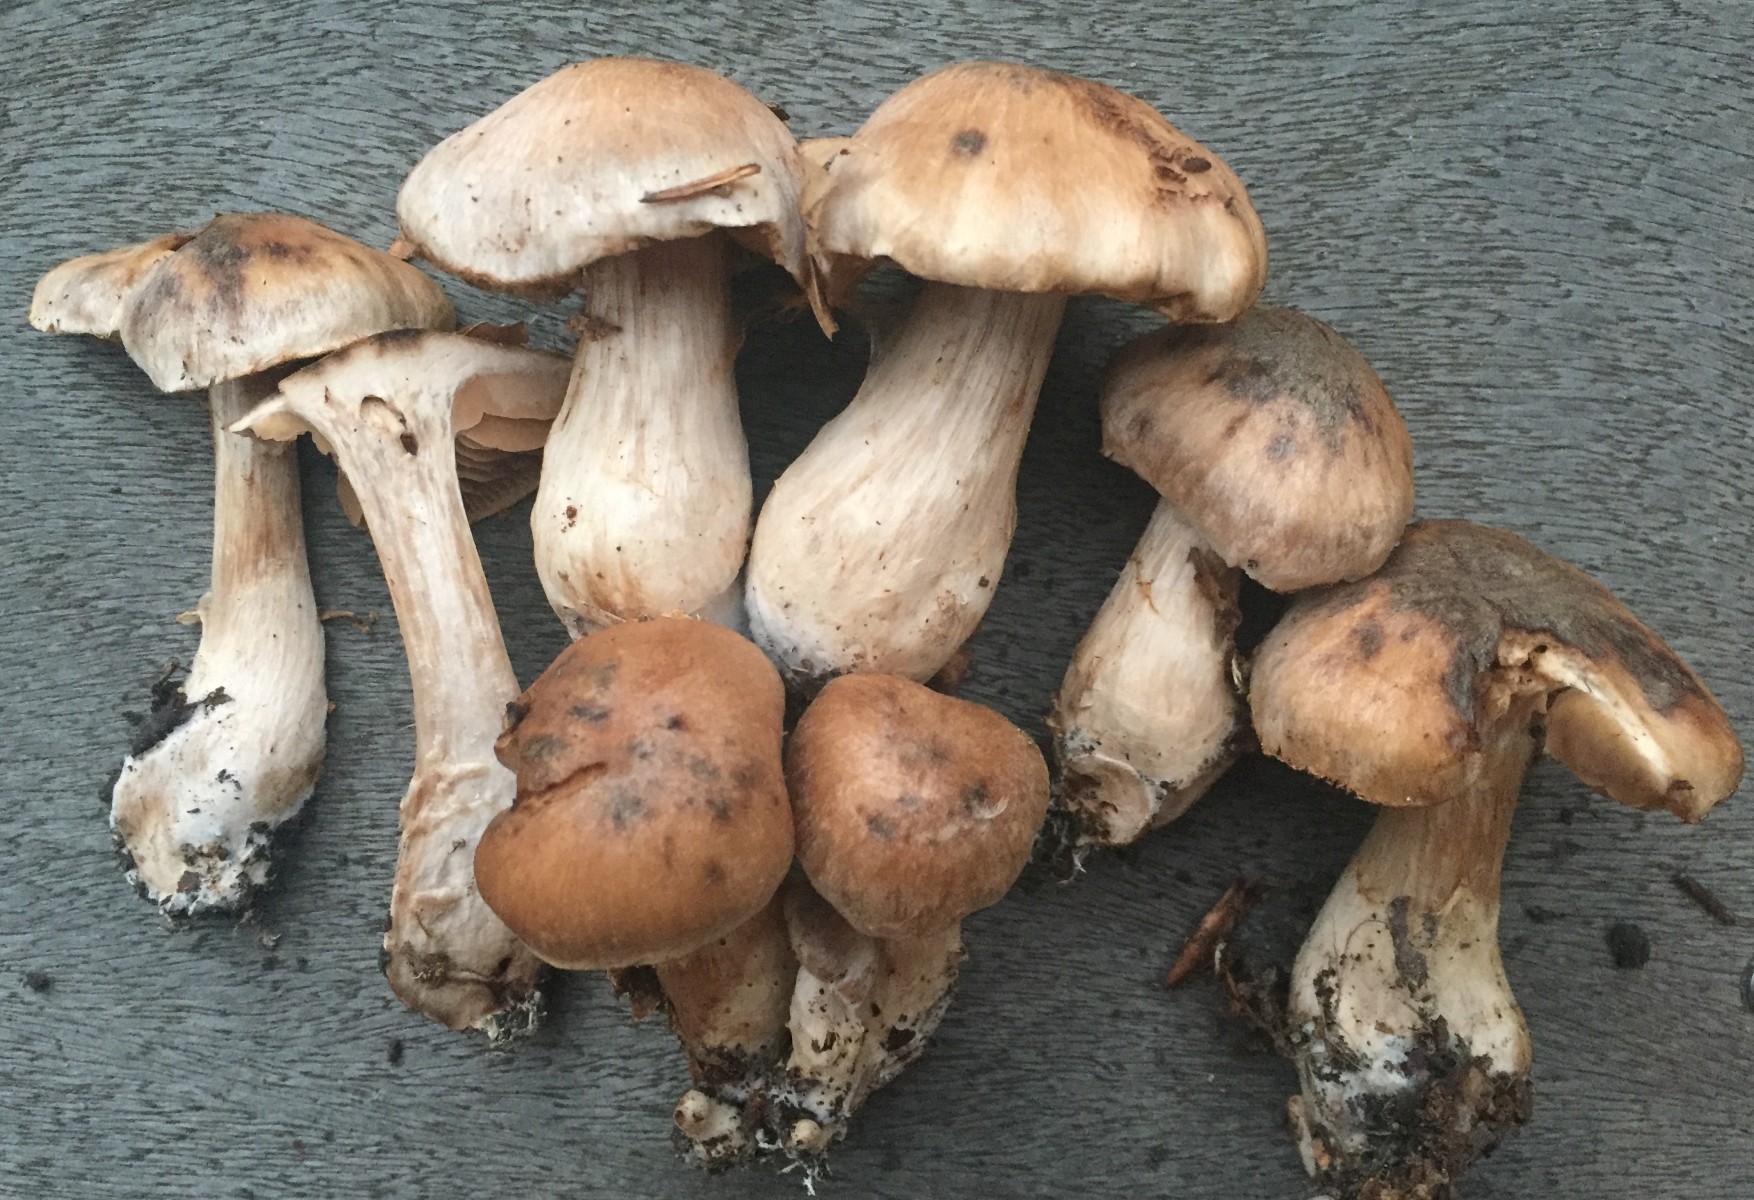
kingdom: Fungi
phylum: Basidiomycota
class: Agaricomycetes
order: Agaricales
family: Cortinariaceae
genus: Cortinarius
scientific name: Cortinarius turgidulus
